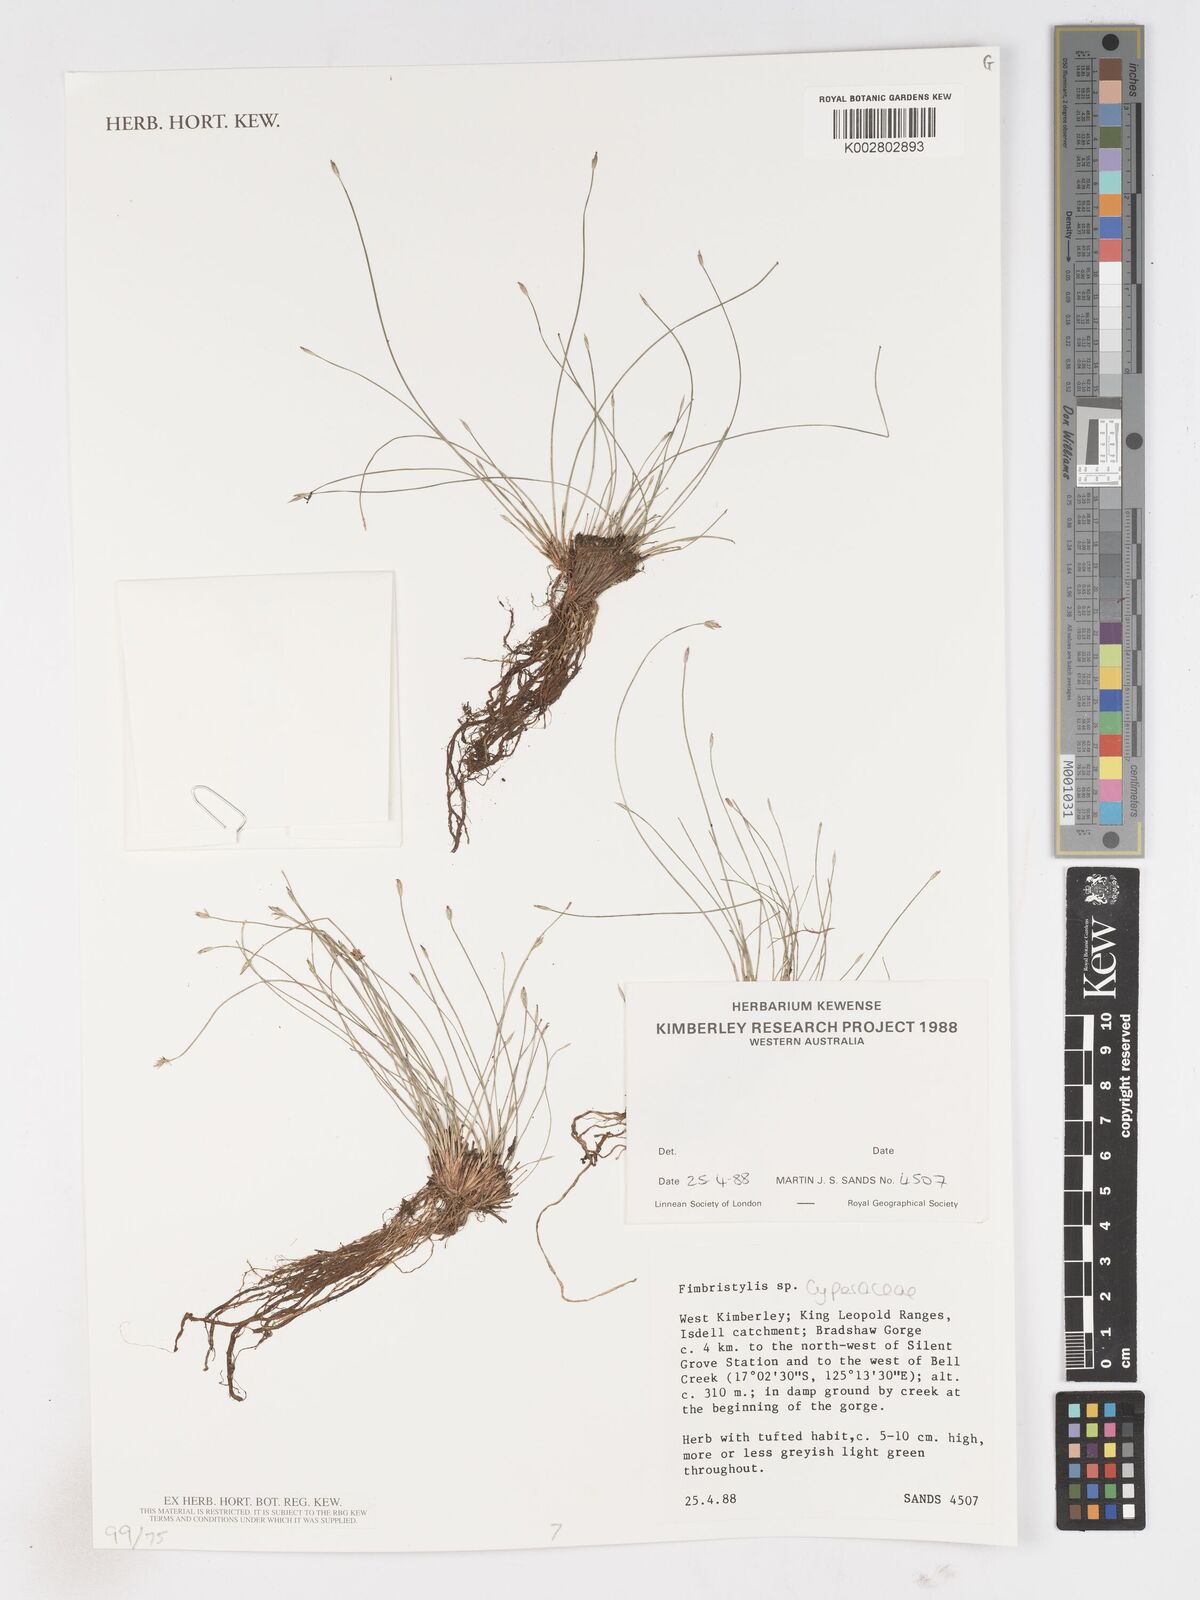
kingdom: Plantae
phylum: Tracheophyta
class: Liliopsida
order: Poales
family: Cyperaceae
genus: Fimbristylis
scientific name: Fimbristylis
